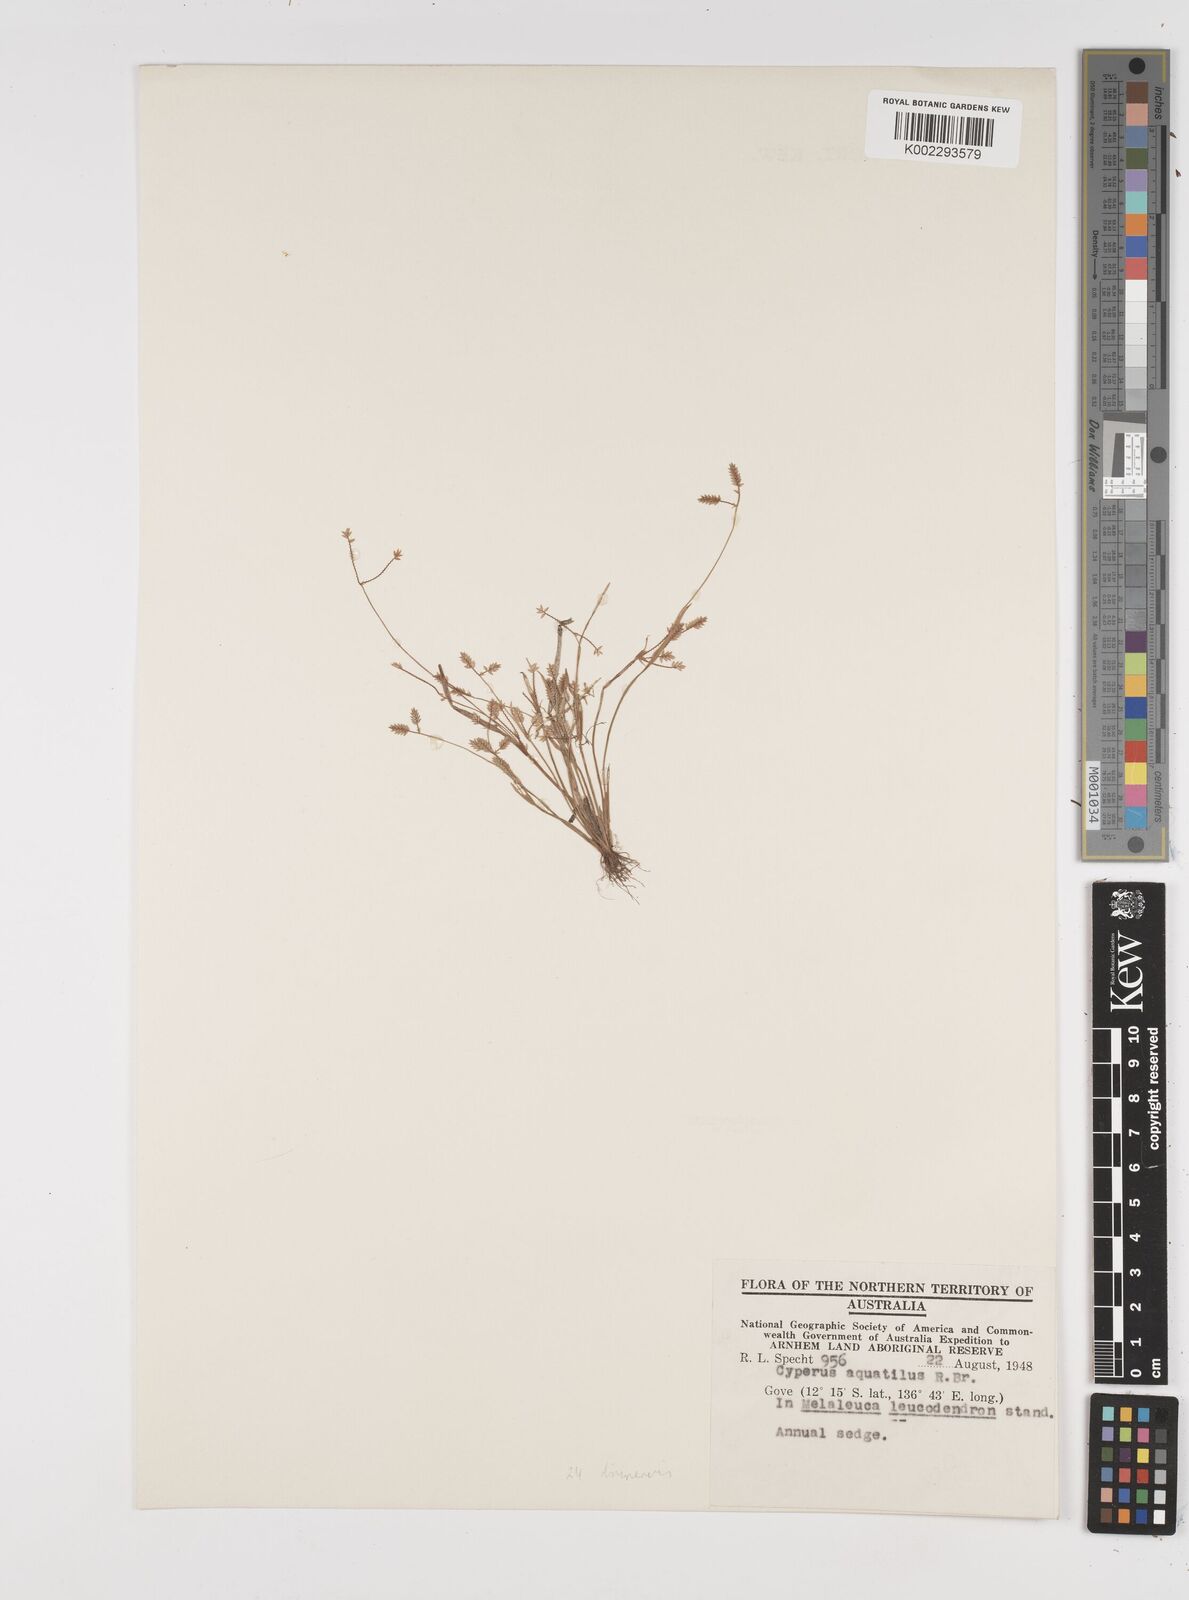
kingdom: Plantae
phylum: Tracheophyta
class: Liliopsida
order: Poales
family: Cyperaceae
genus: Cyperus
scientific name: Cyperus aquatilis
